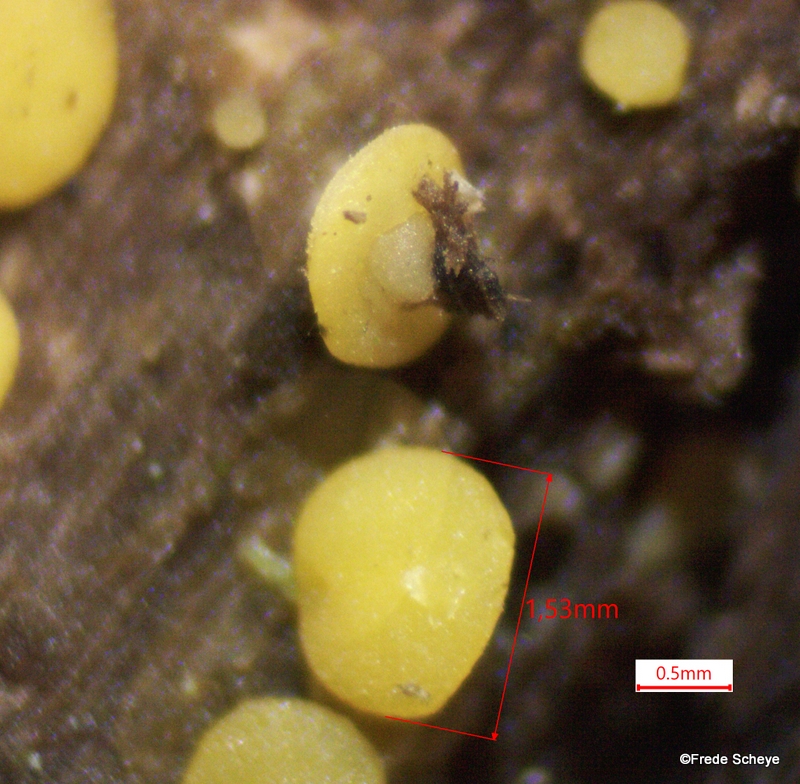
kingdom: Fungi
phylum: Ascomycota
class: Leotiomycetes
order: Helotiales
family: Pezizellaceae
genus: Calycina
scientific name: Calycina citrina
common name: almindelig gulskive
